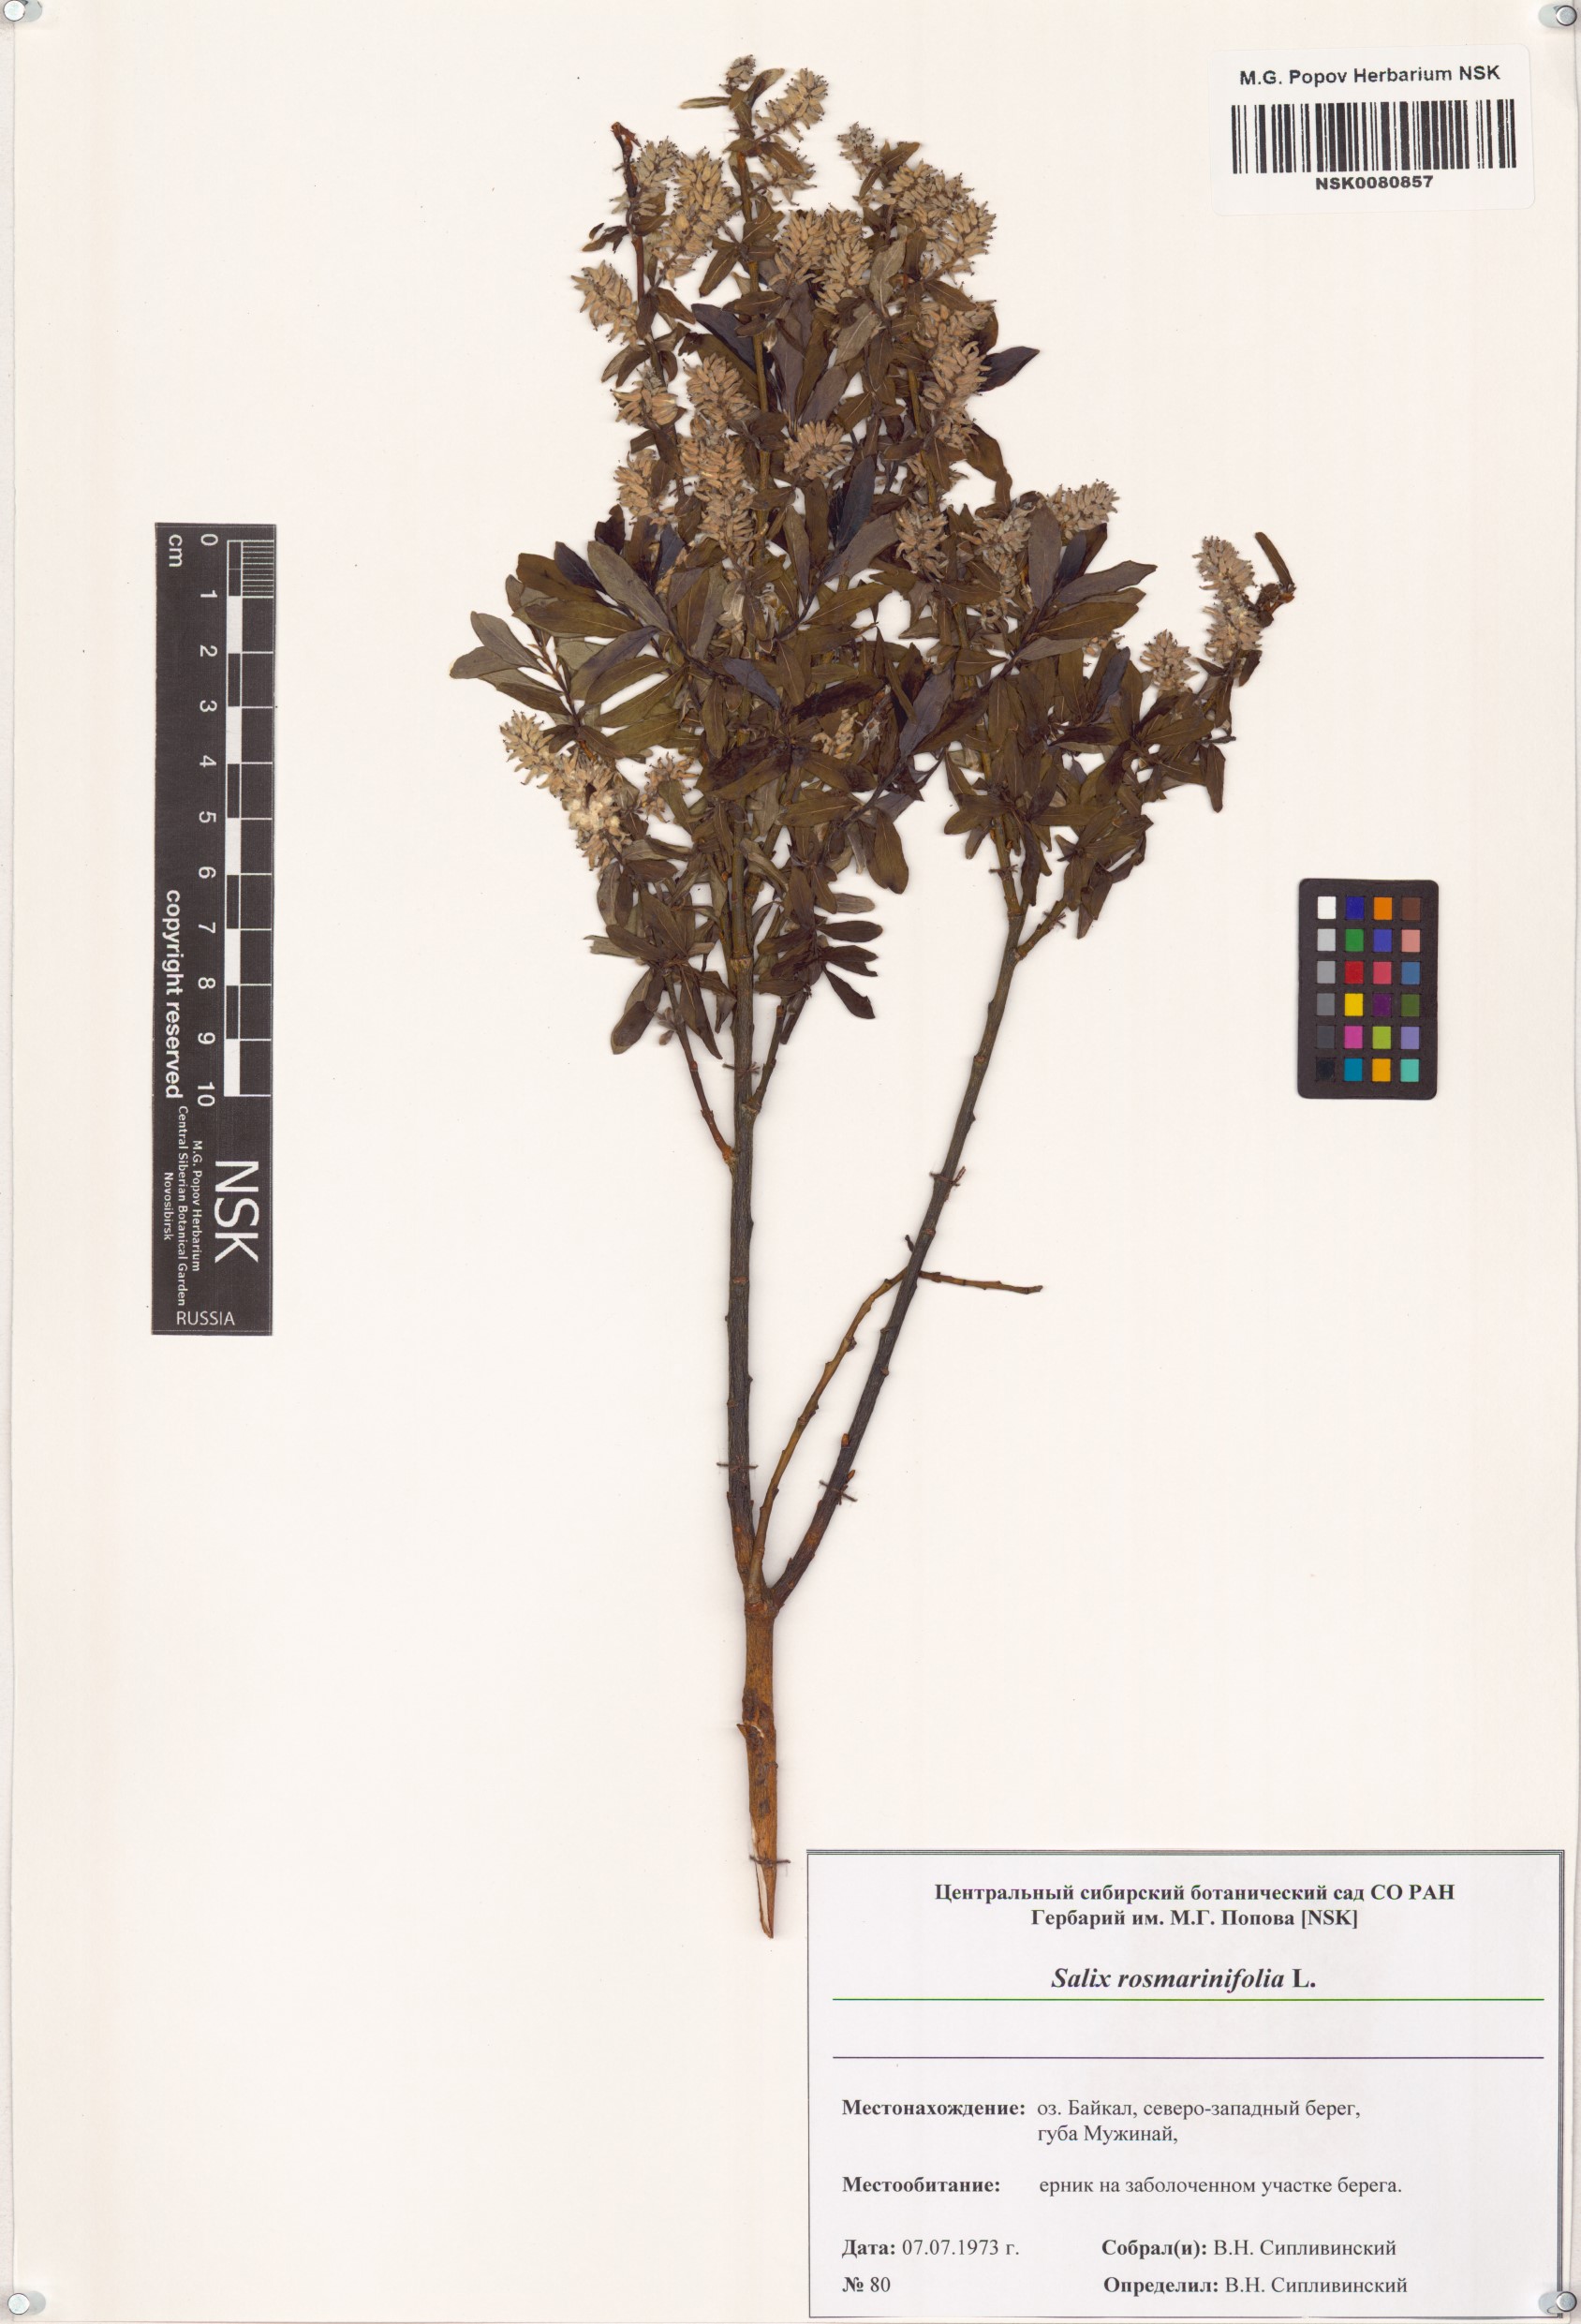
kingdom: Plantae
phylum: Tracheophyta
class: Magnoliopsida
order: Malpighiales
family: Salicaceae
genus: Salix
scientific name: Salix rosmarinifolia
